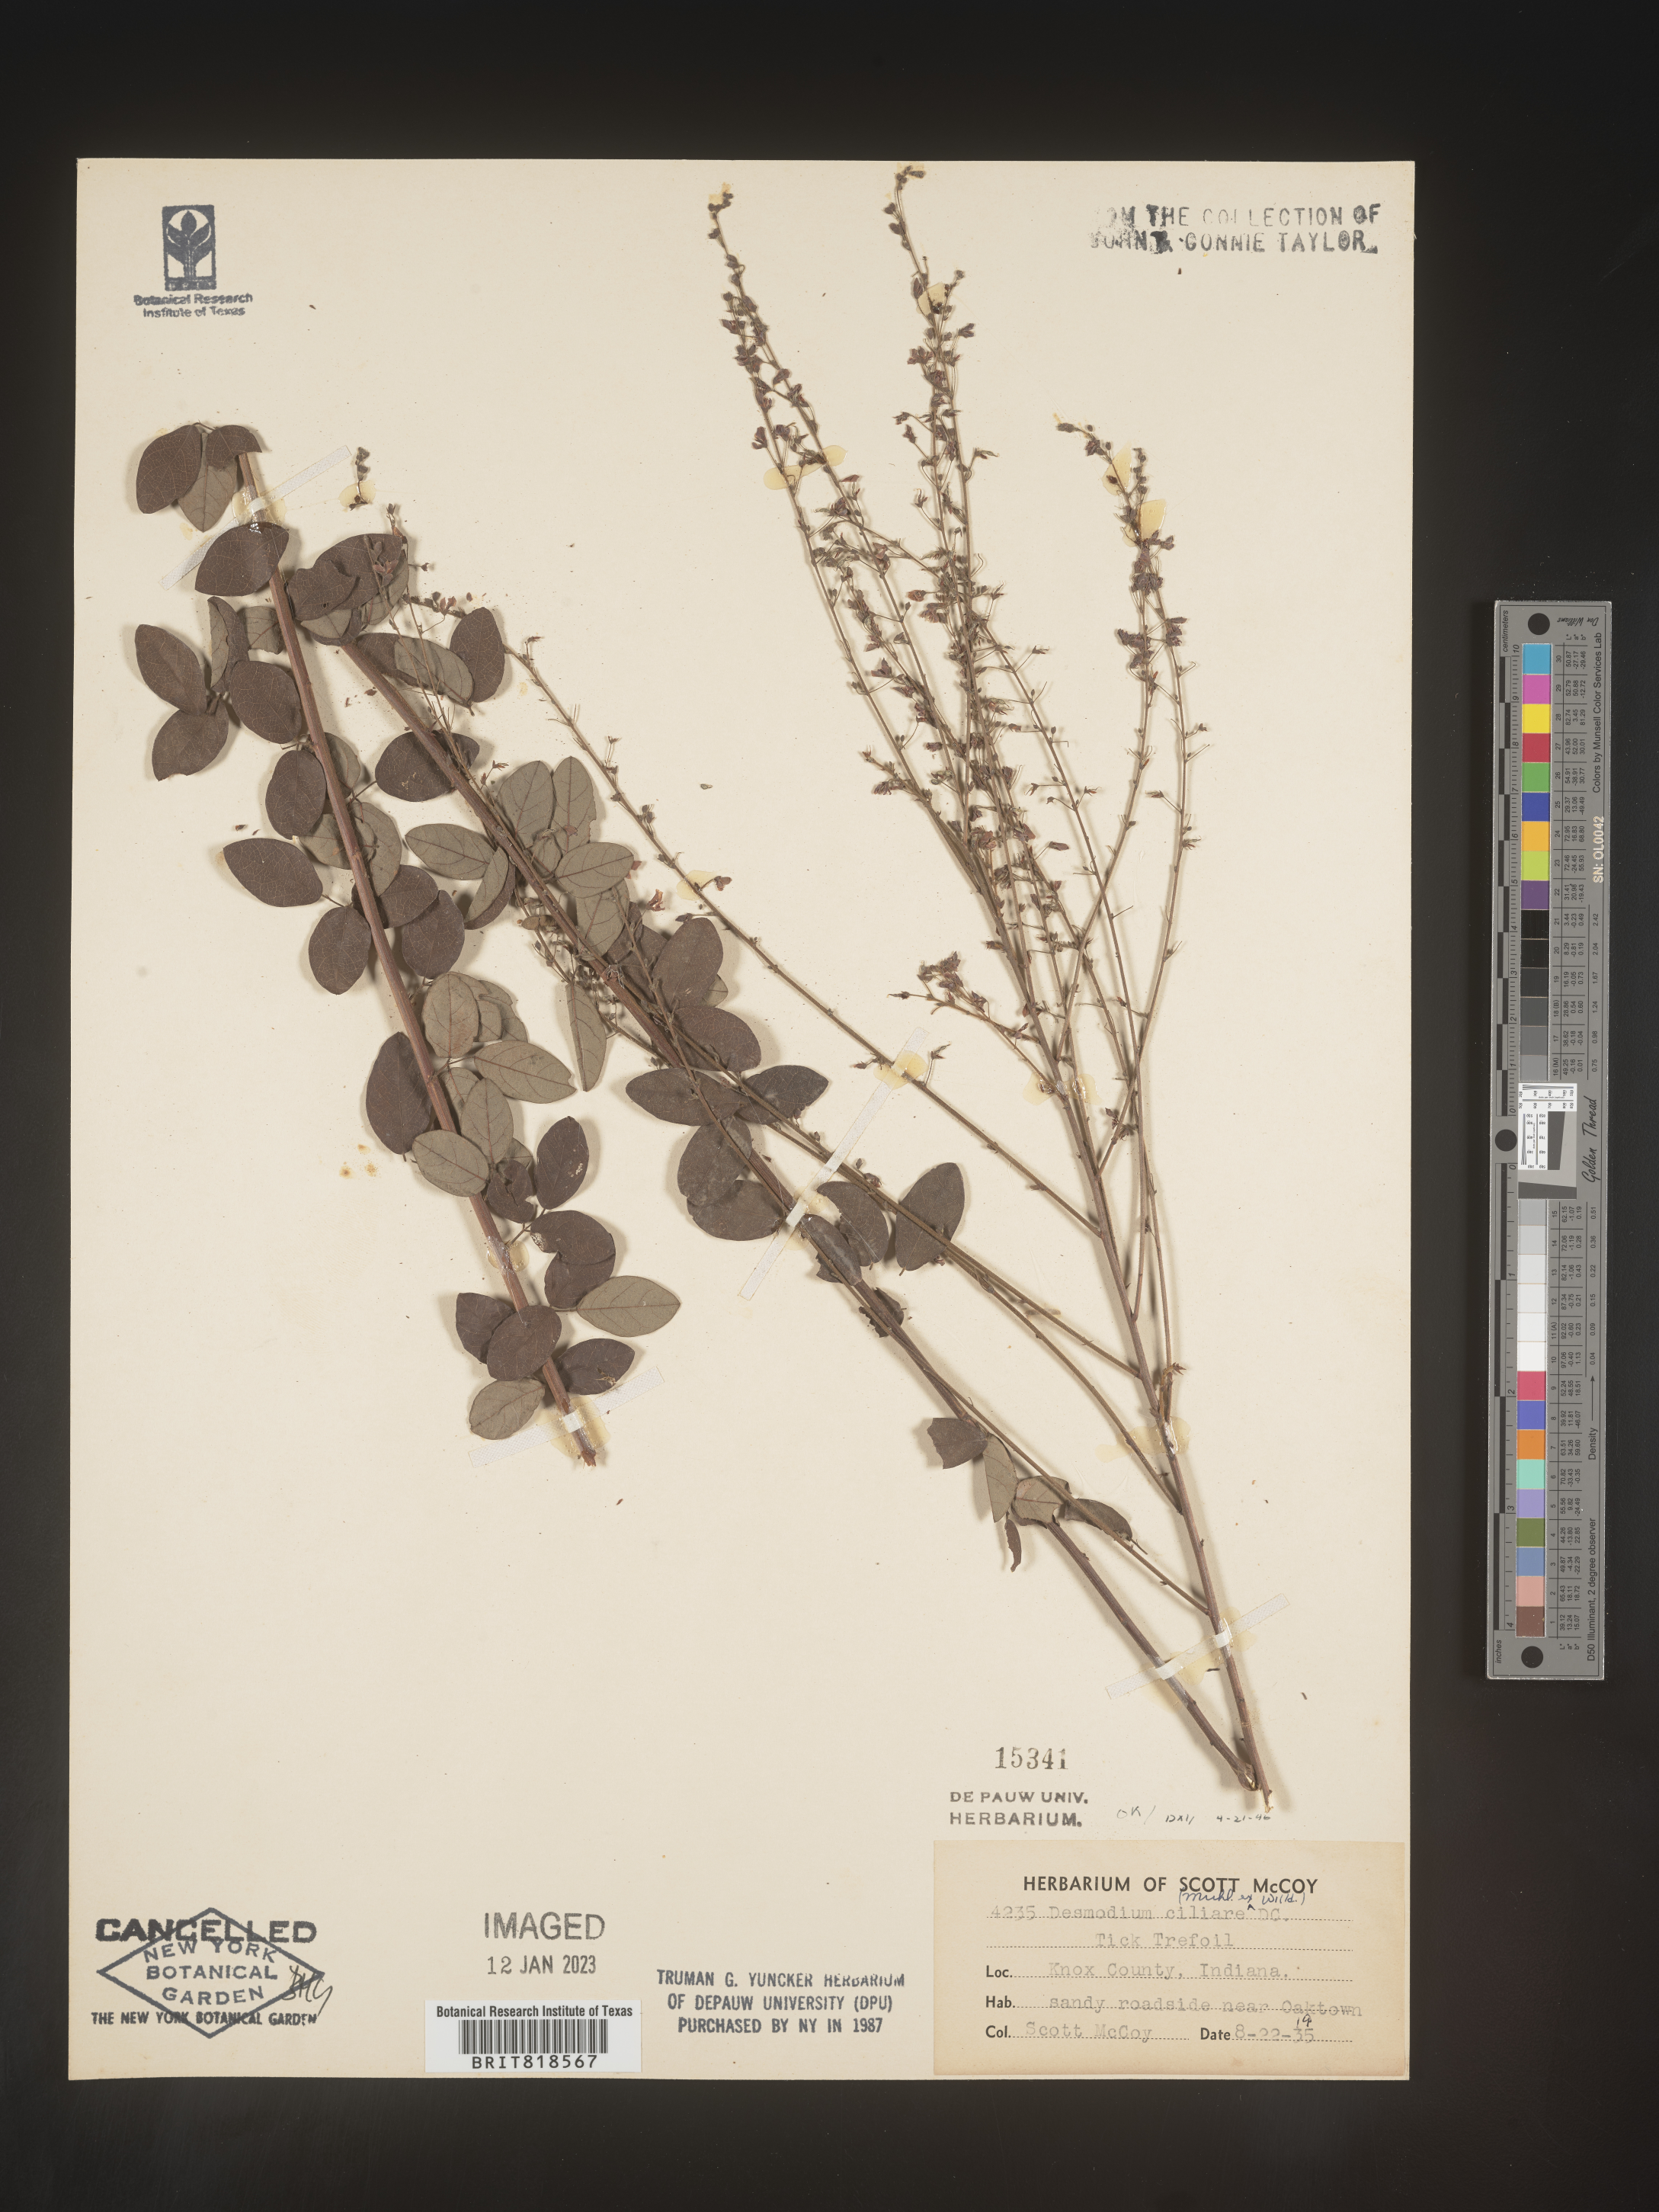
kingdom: Plantae
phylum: Tracheophyta
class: Magnoliopsida
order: Fabales
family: Fabaceae
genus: Desmodium
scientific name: Desmodium ciliare
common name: Hairy small-leaf ticktrefoil
